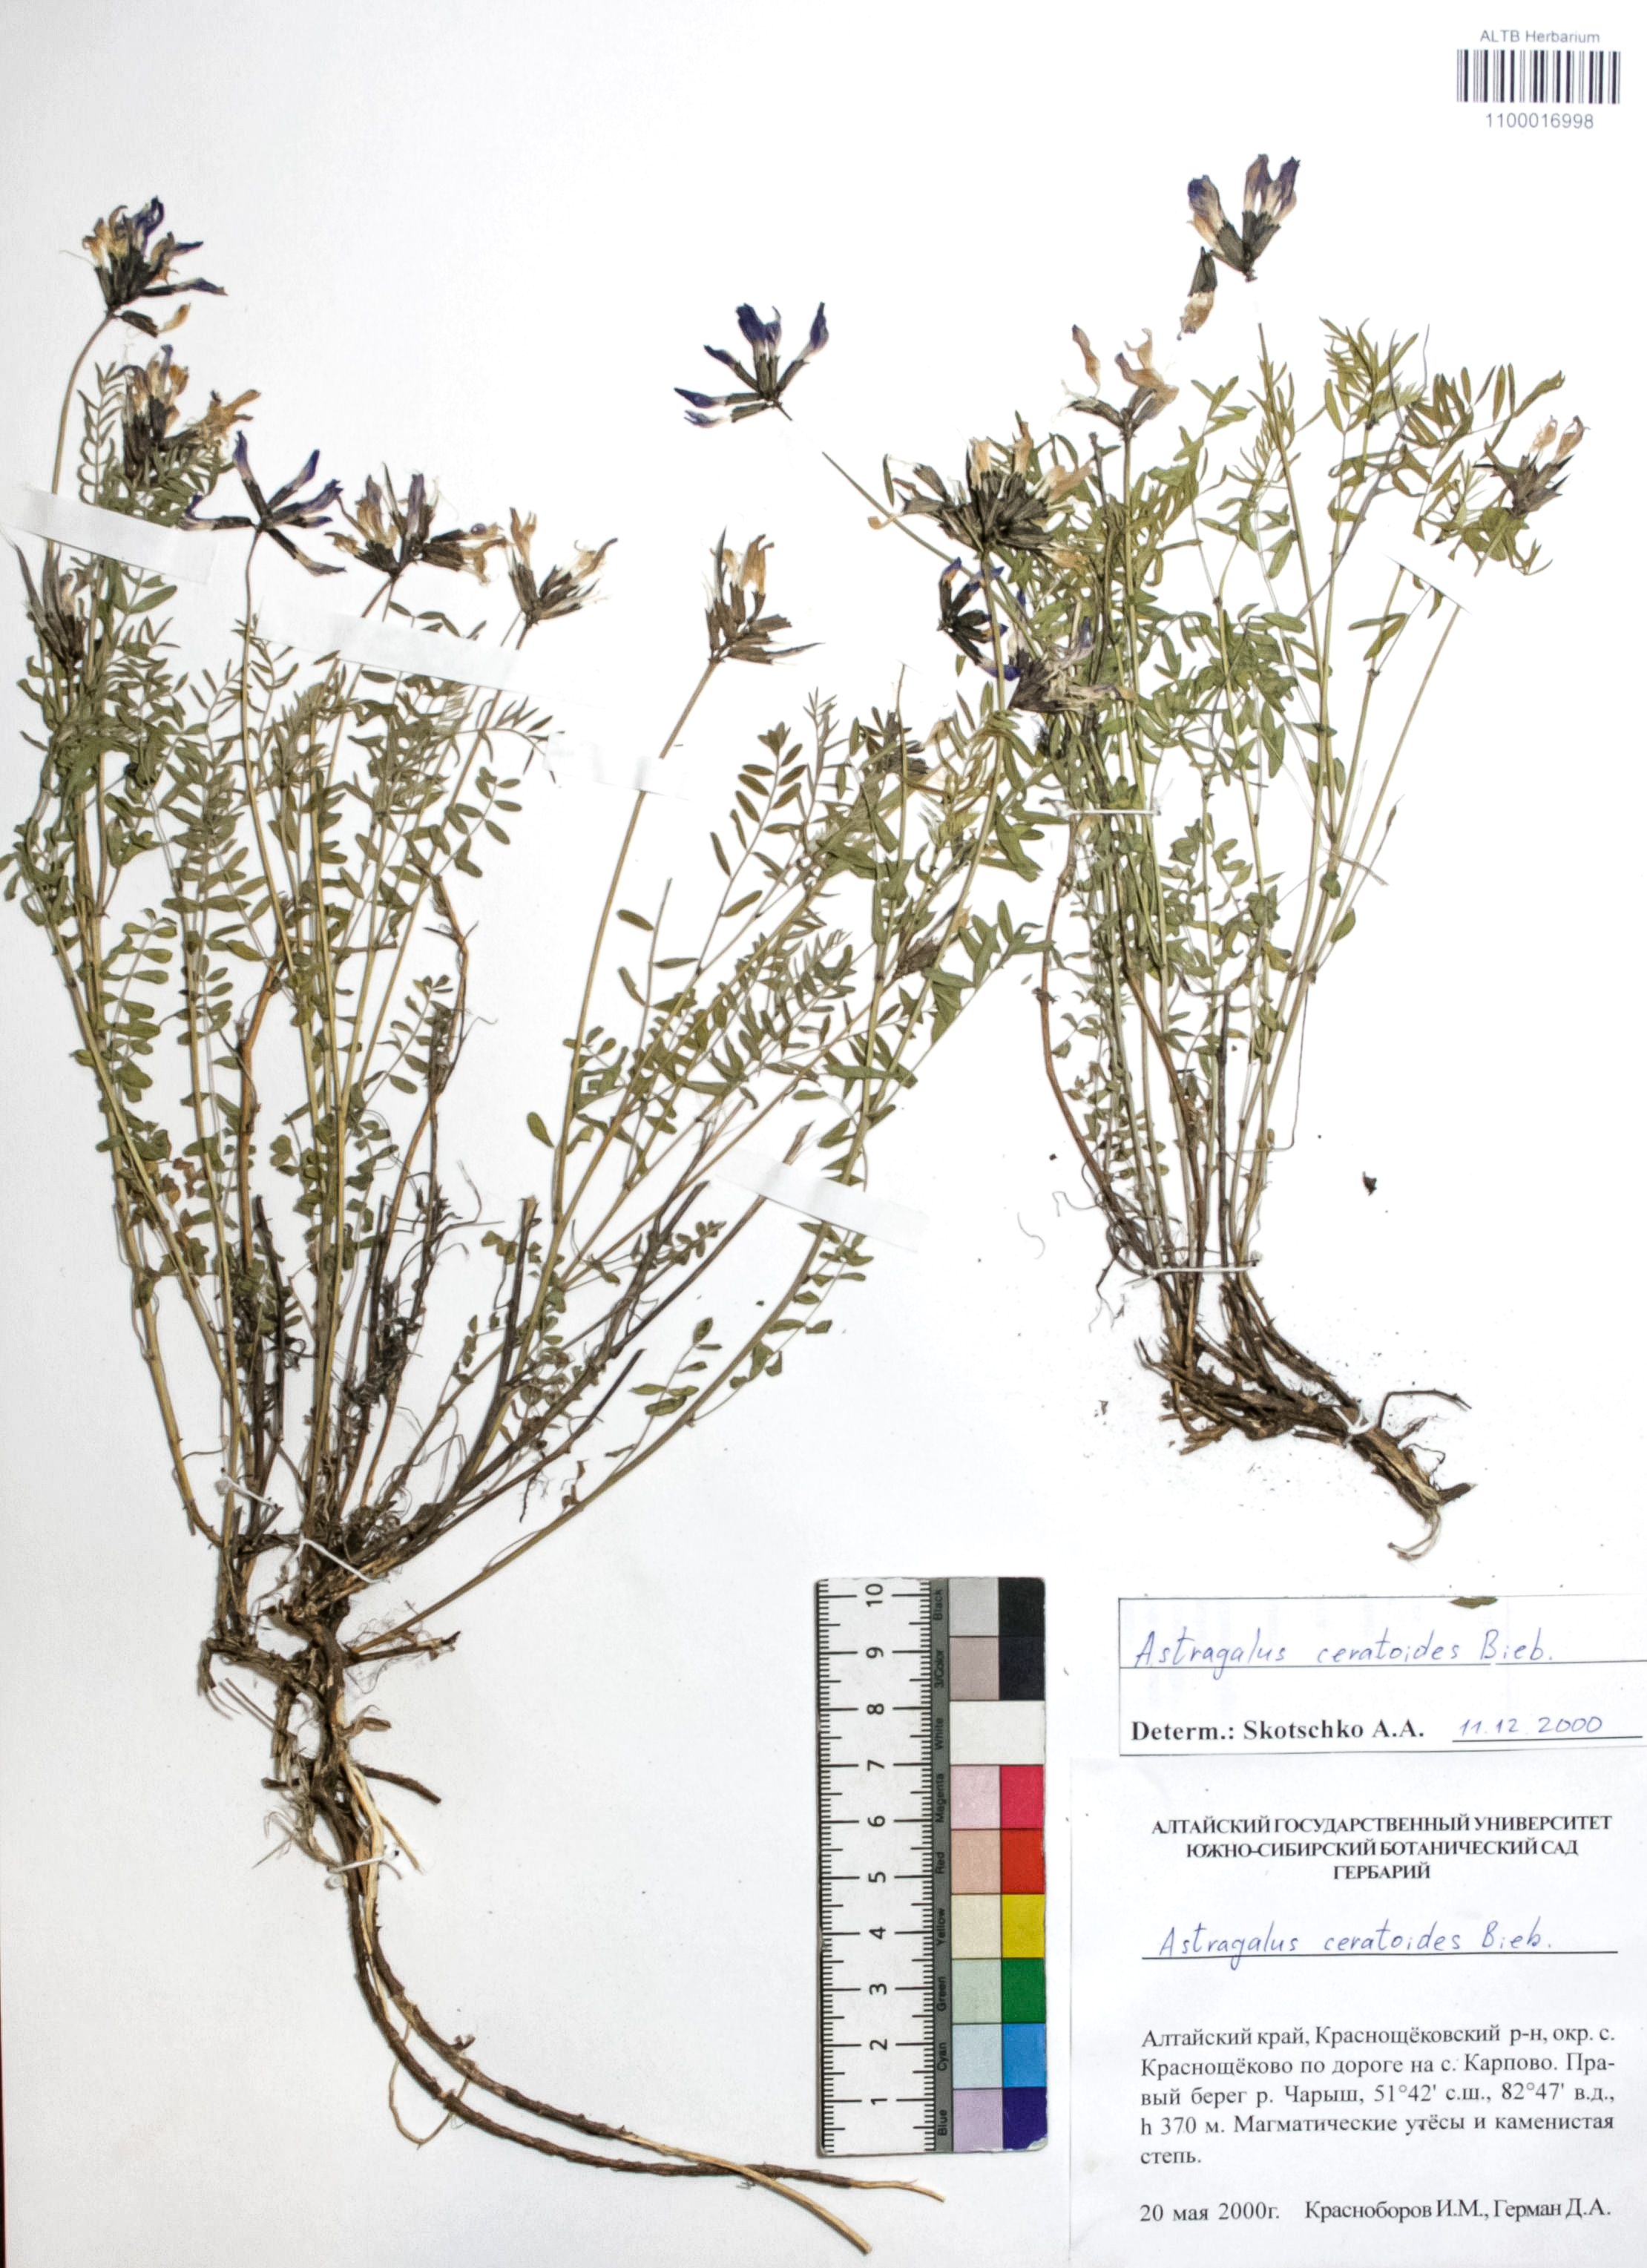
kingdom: Plantae
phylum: Tracheophyta
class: Magnoliopsida
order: Fabales
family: Fabaceae
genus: Astragalus
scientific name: Astragalus ceratoides
